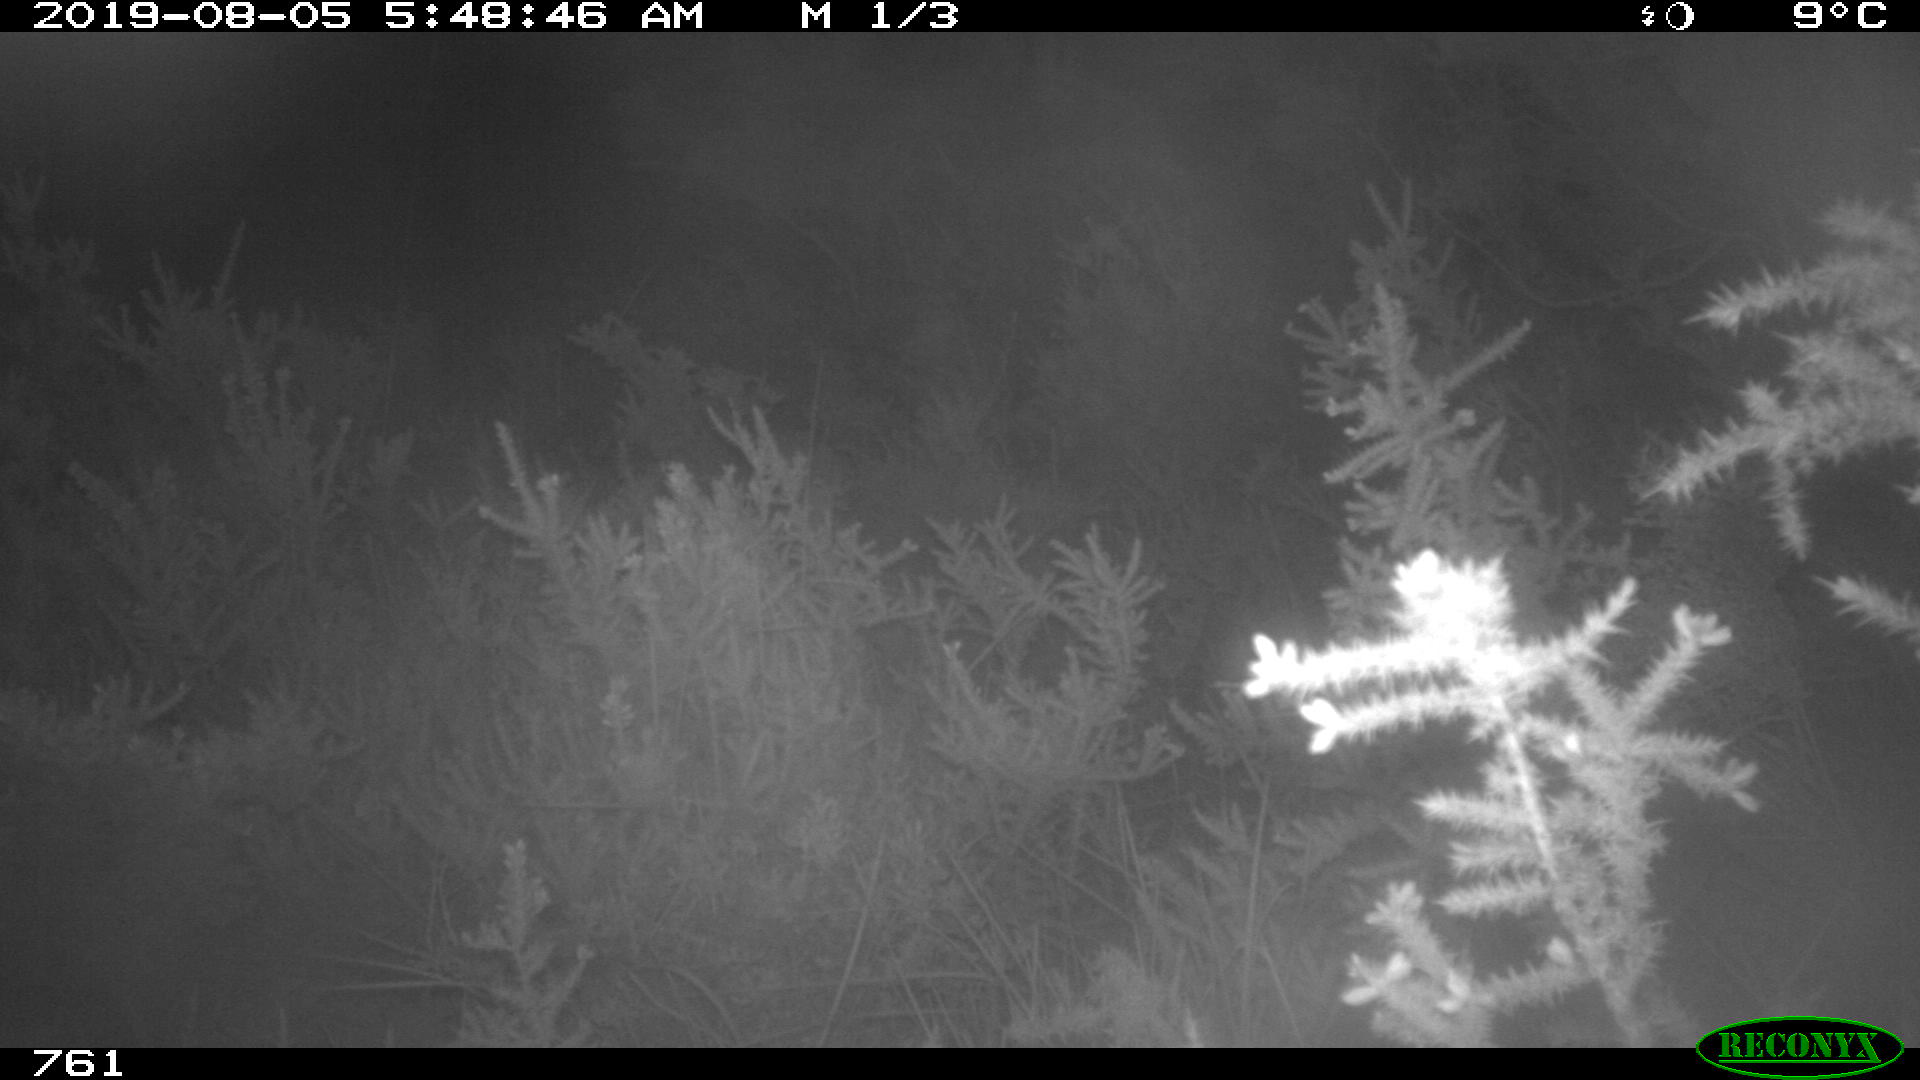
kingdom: Animalia
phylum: Chordata
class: Mammalia
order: Artiodactyla
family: Suidae
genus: Sus
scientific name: Sus scrofa
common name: Wild boar
